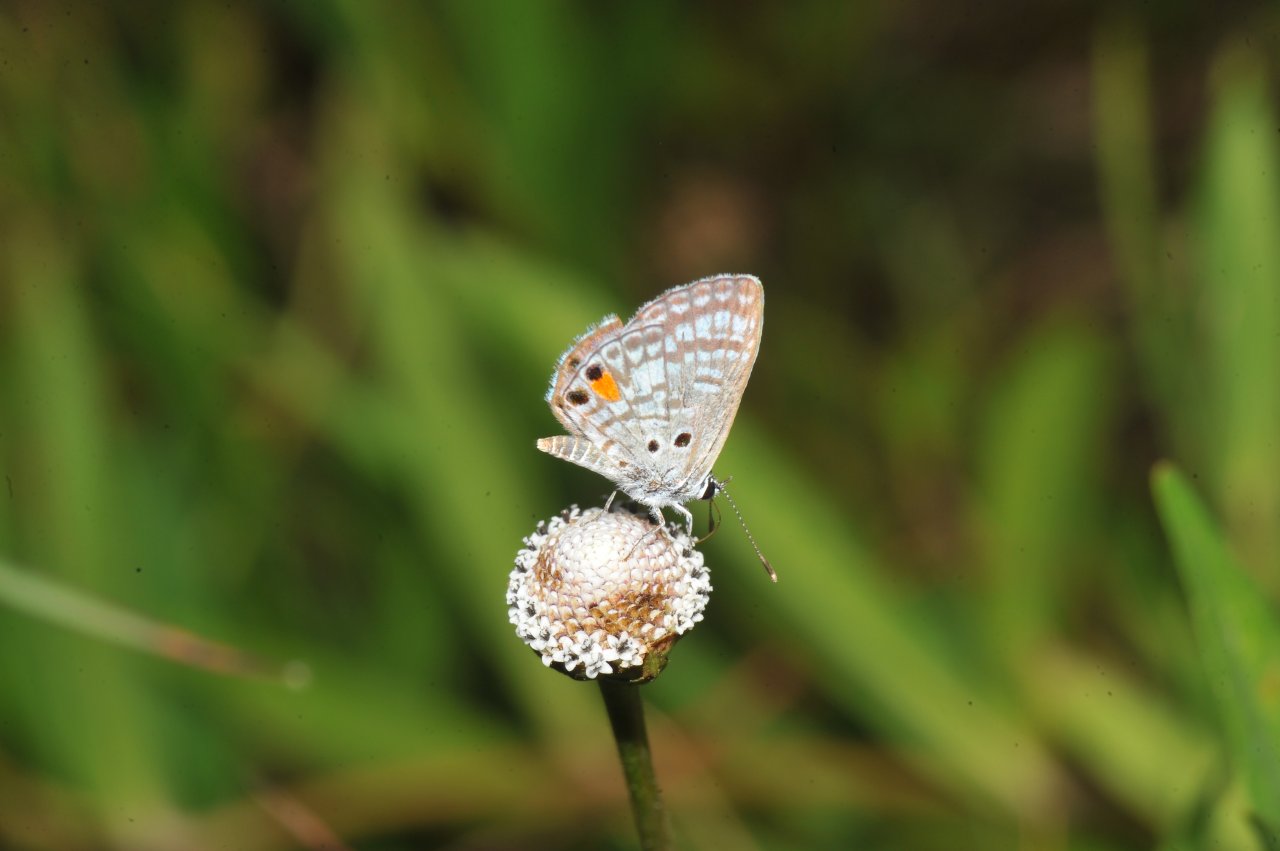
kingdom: Animalia
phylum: Arthropoda
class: Insecta
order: Lepidoptera
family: Lycaenidae
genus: Cyclargus
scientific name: Cyclargus ammon
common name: Nickerbean Blue
